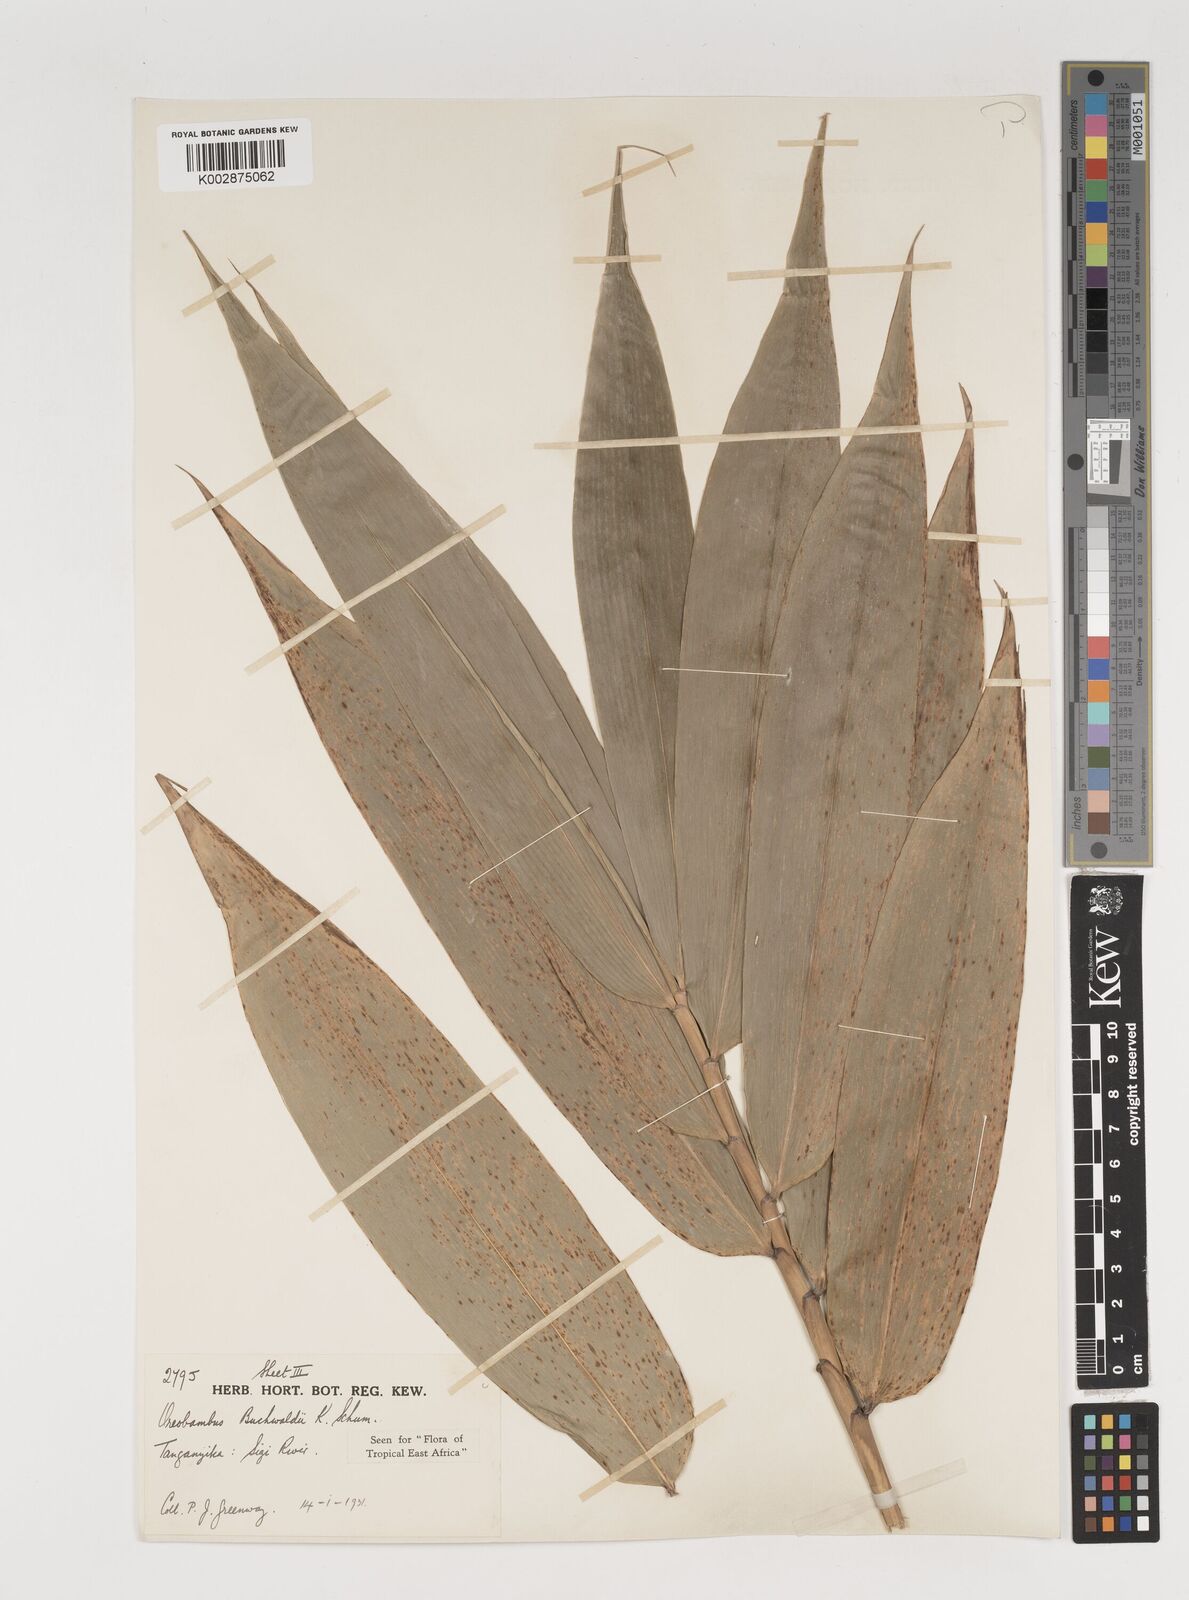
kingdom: Plantae
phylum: Tracheophyta
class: Liliopsida
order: Poales
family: Poaceae
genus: Oreobambos
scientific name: Oreobambos buchwaldii
